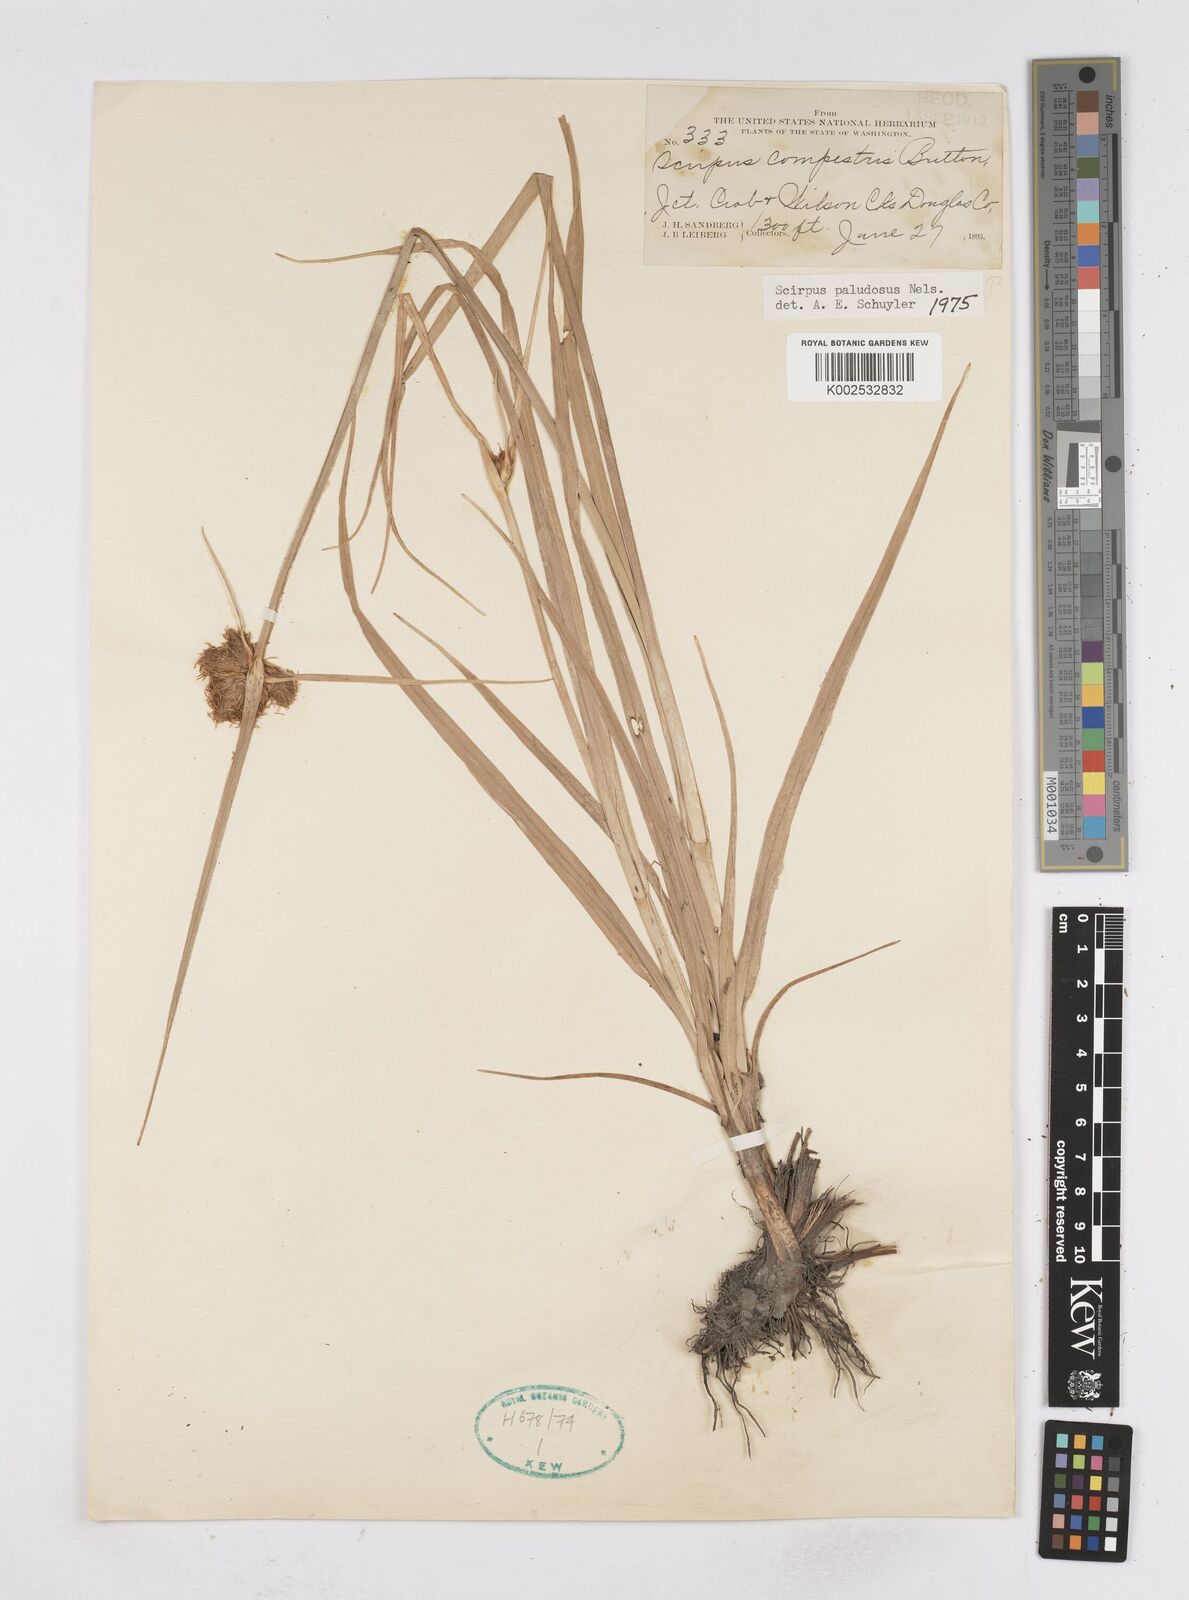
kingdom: Plantae
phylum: Tracheophyta
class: Liliopsida
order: Poales
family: Cyperaceae
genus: Bolboschoenus
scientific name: Bolboschoenus maritimus
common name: Sea club-rush
